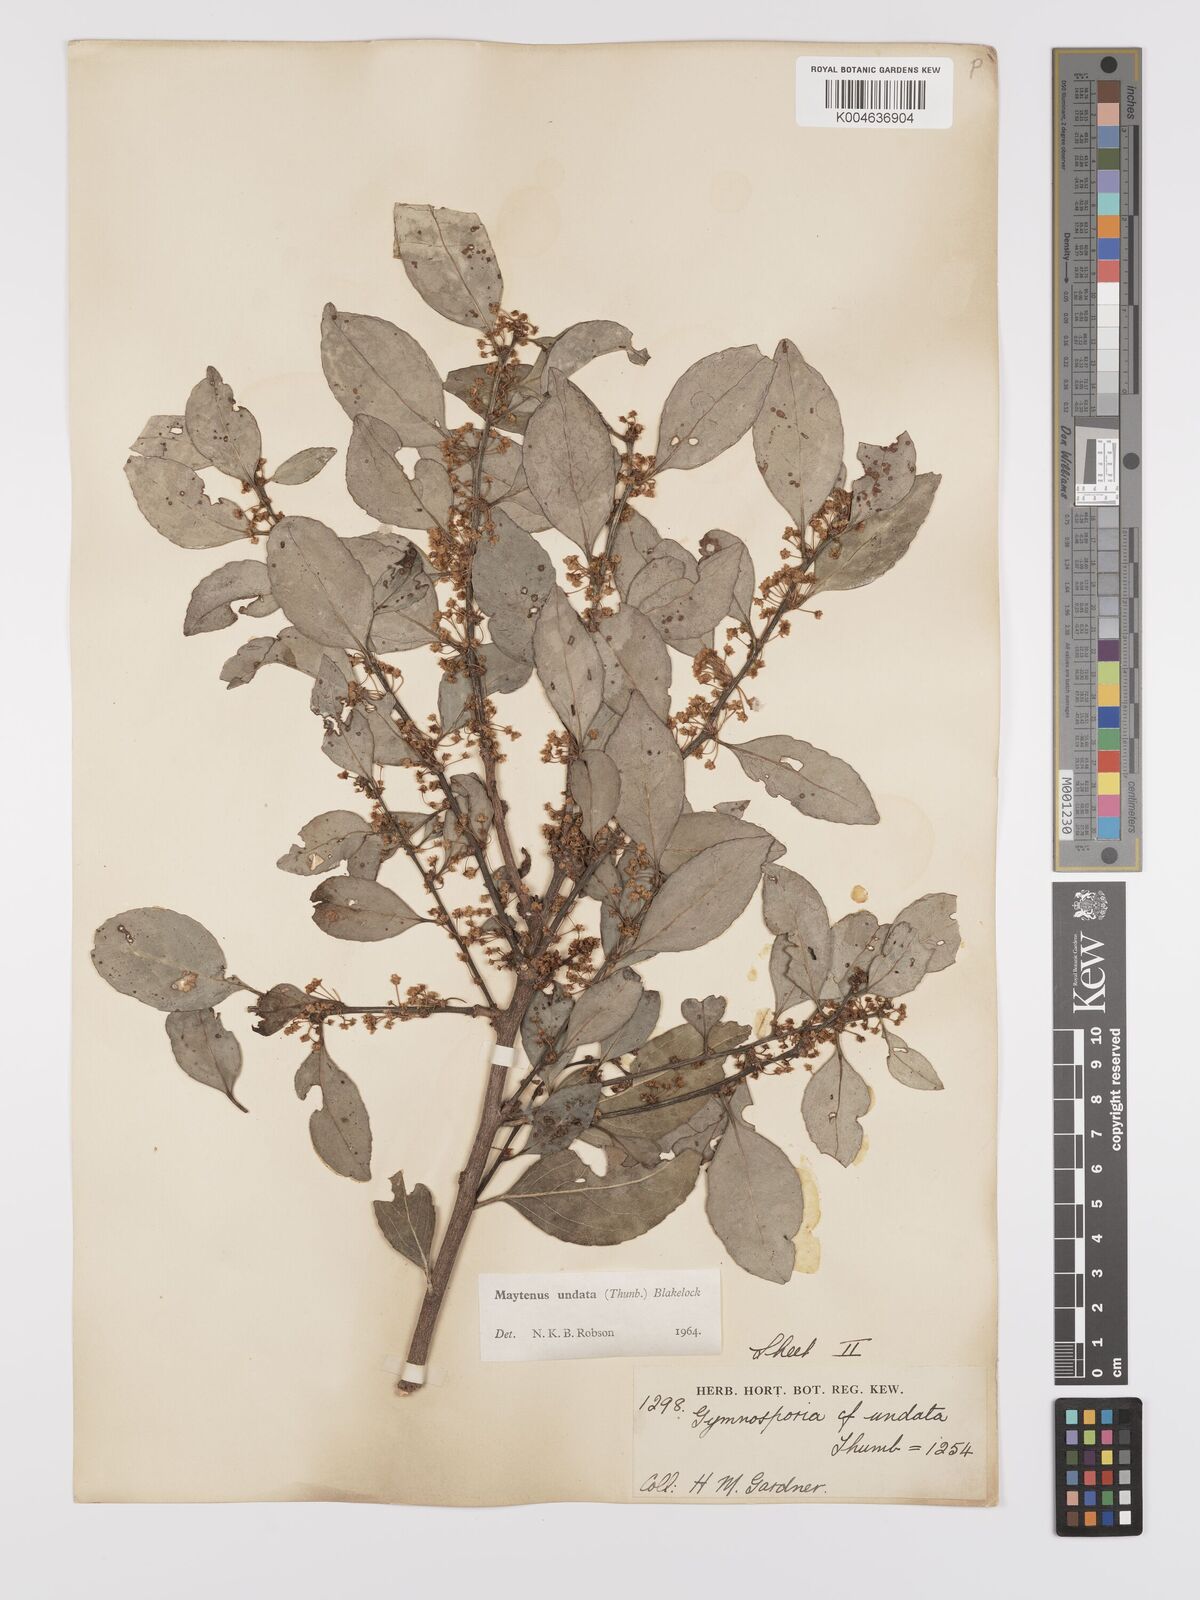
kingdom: Plantae
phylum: Tracheophyta
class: Magnoliopsida
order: Celastrales
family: Celastraceae
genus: Gymnosporia
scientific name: Gymnosporia undata
